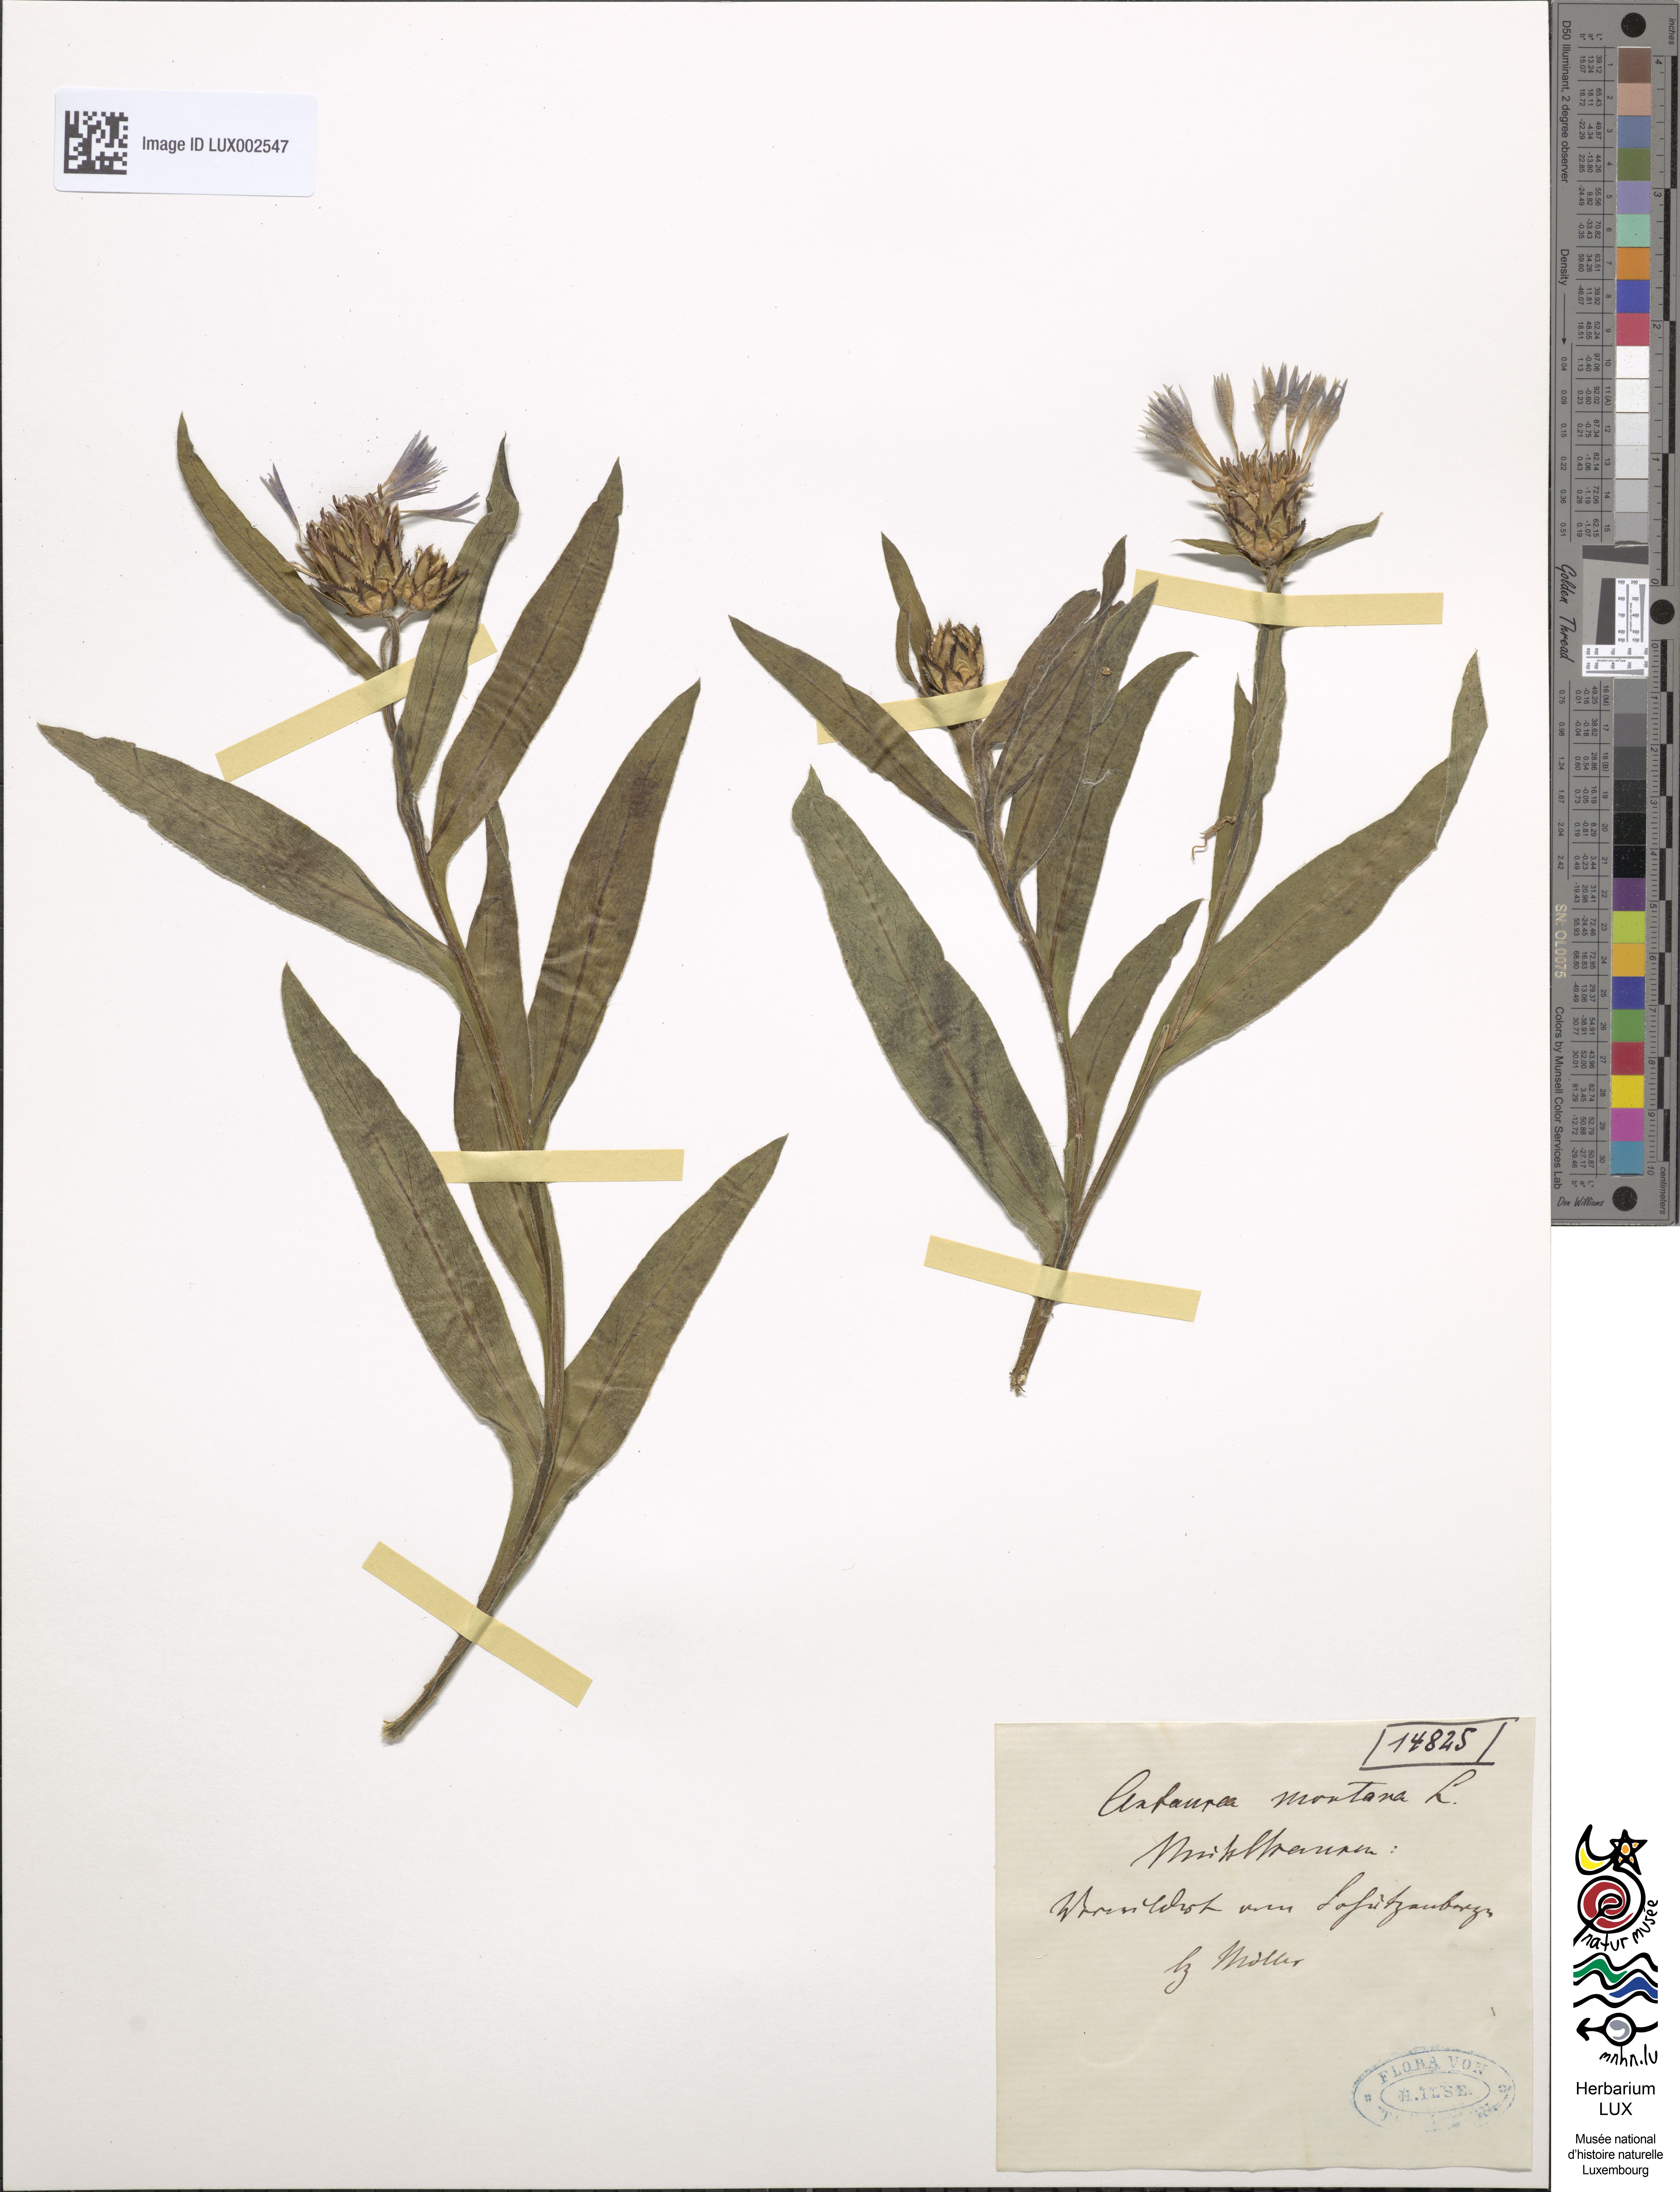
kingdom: Plantae
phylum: Tracheophyta
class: Magnoliopsida
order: Asterales
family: Asteraceae
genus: Centaurea
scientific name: Centaurea montana
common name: Perennial cornflower
